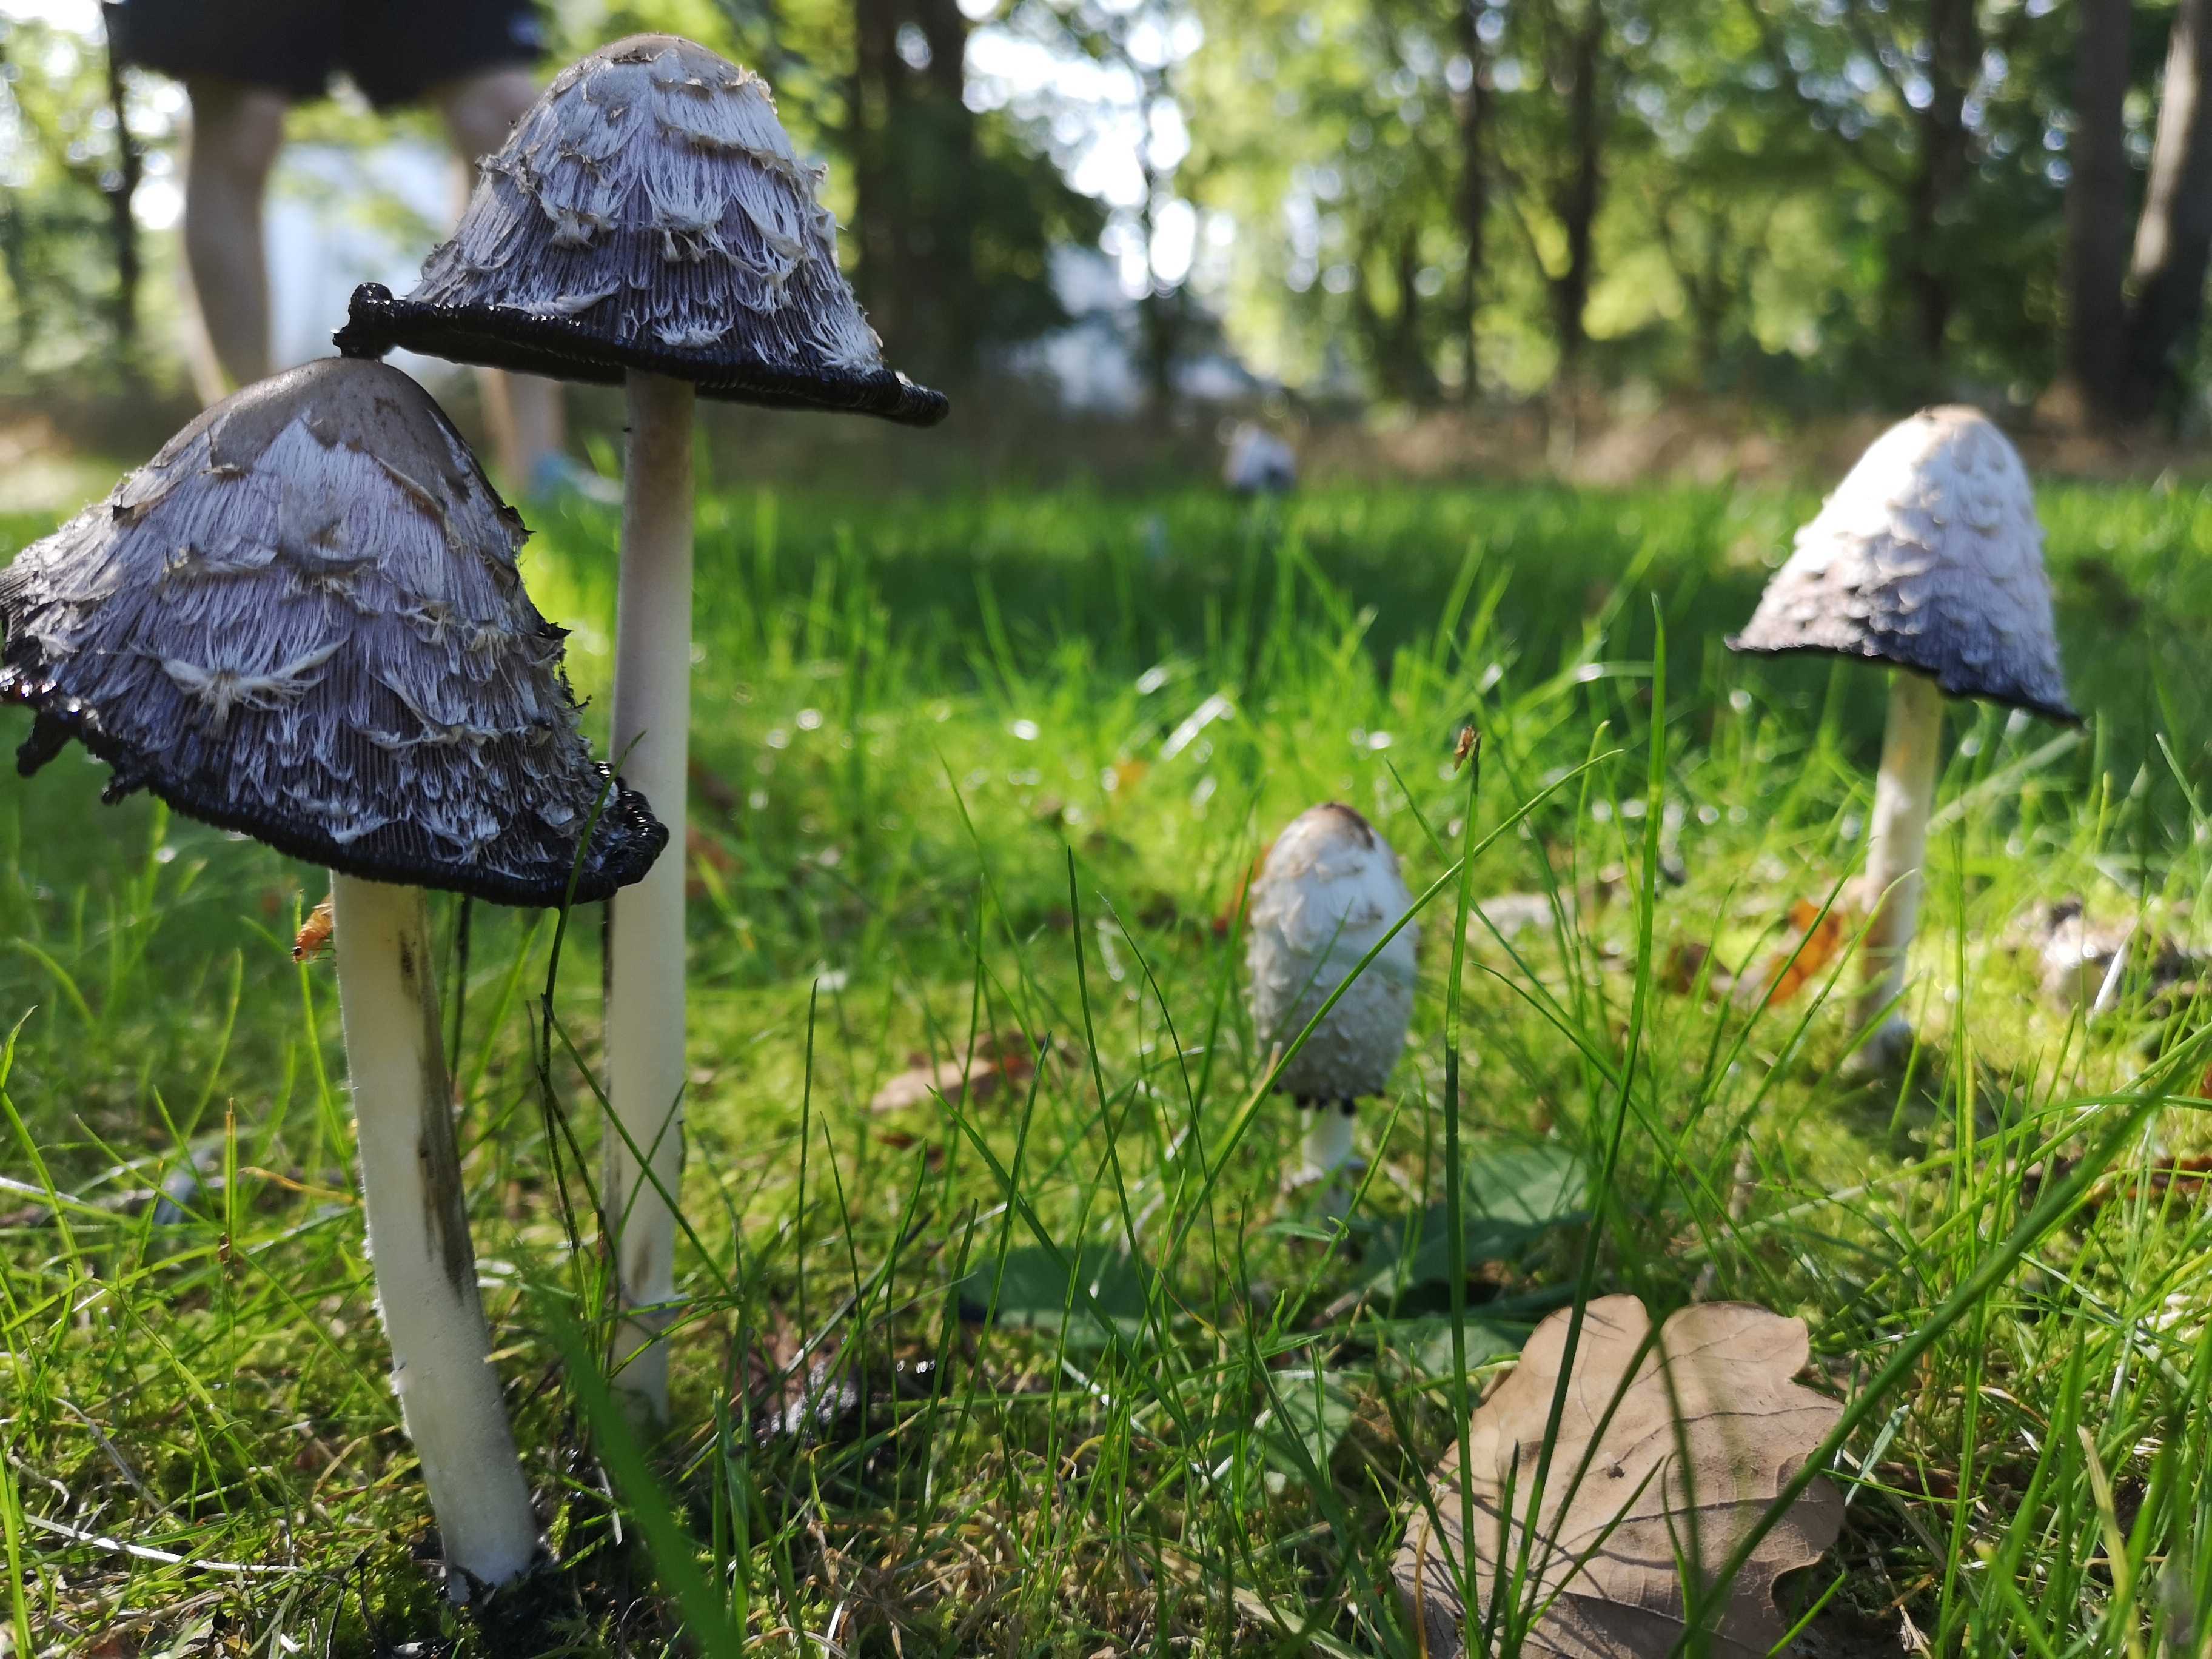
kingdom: Fungi
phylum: Basidiomycota
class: Agaricomycetes
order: Agaricales
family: Agaricaceae
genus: Coprinus
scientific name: Coprinus comatus
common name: stor parykhat
